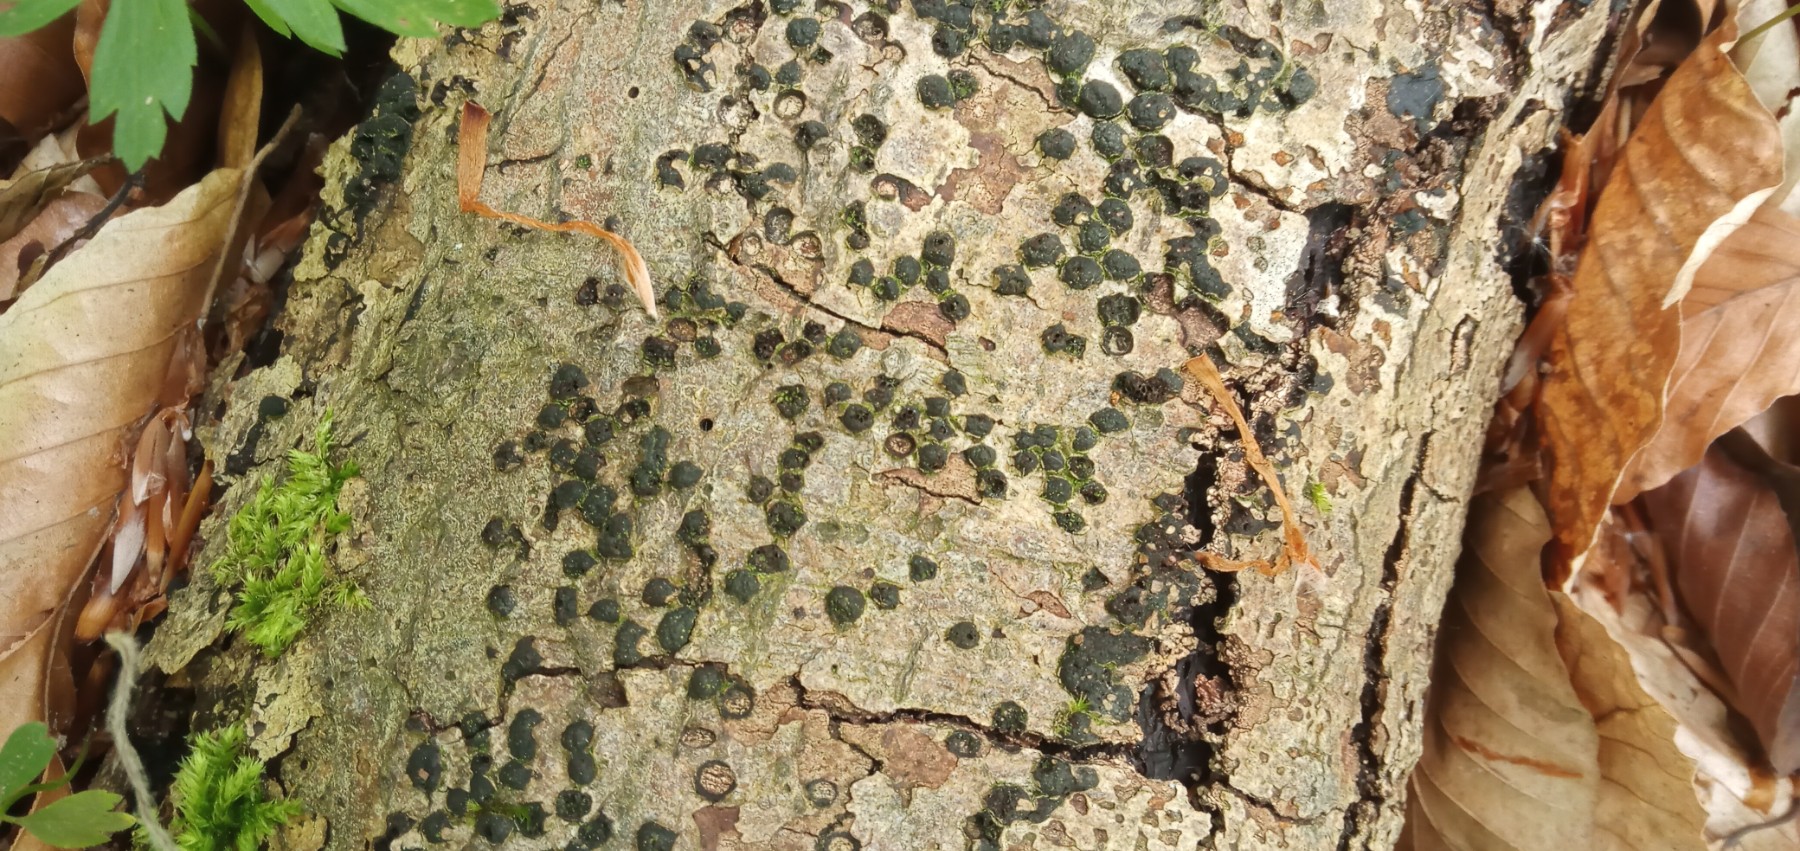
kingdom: Fungi
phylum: Ascomycota
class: Sordariomycetes
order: Xylariales
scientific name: Xylariales
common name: stødsvampordenen
